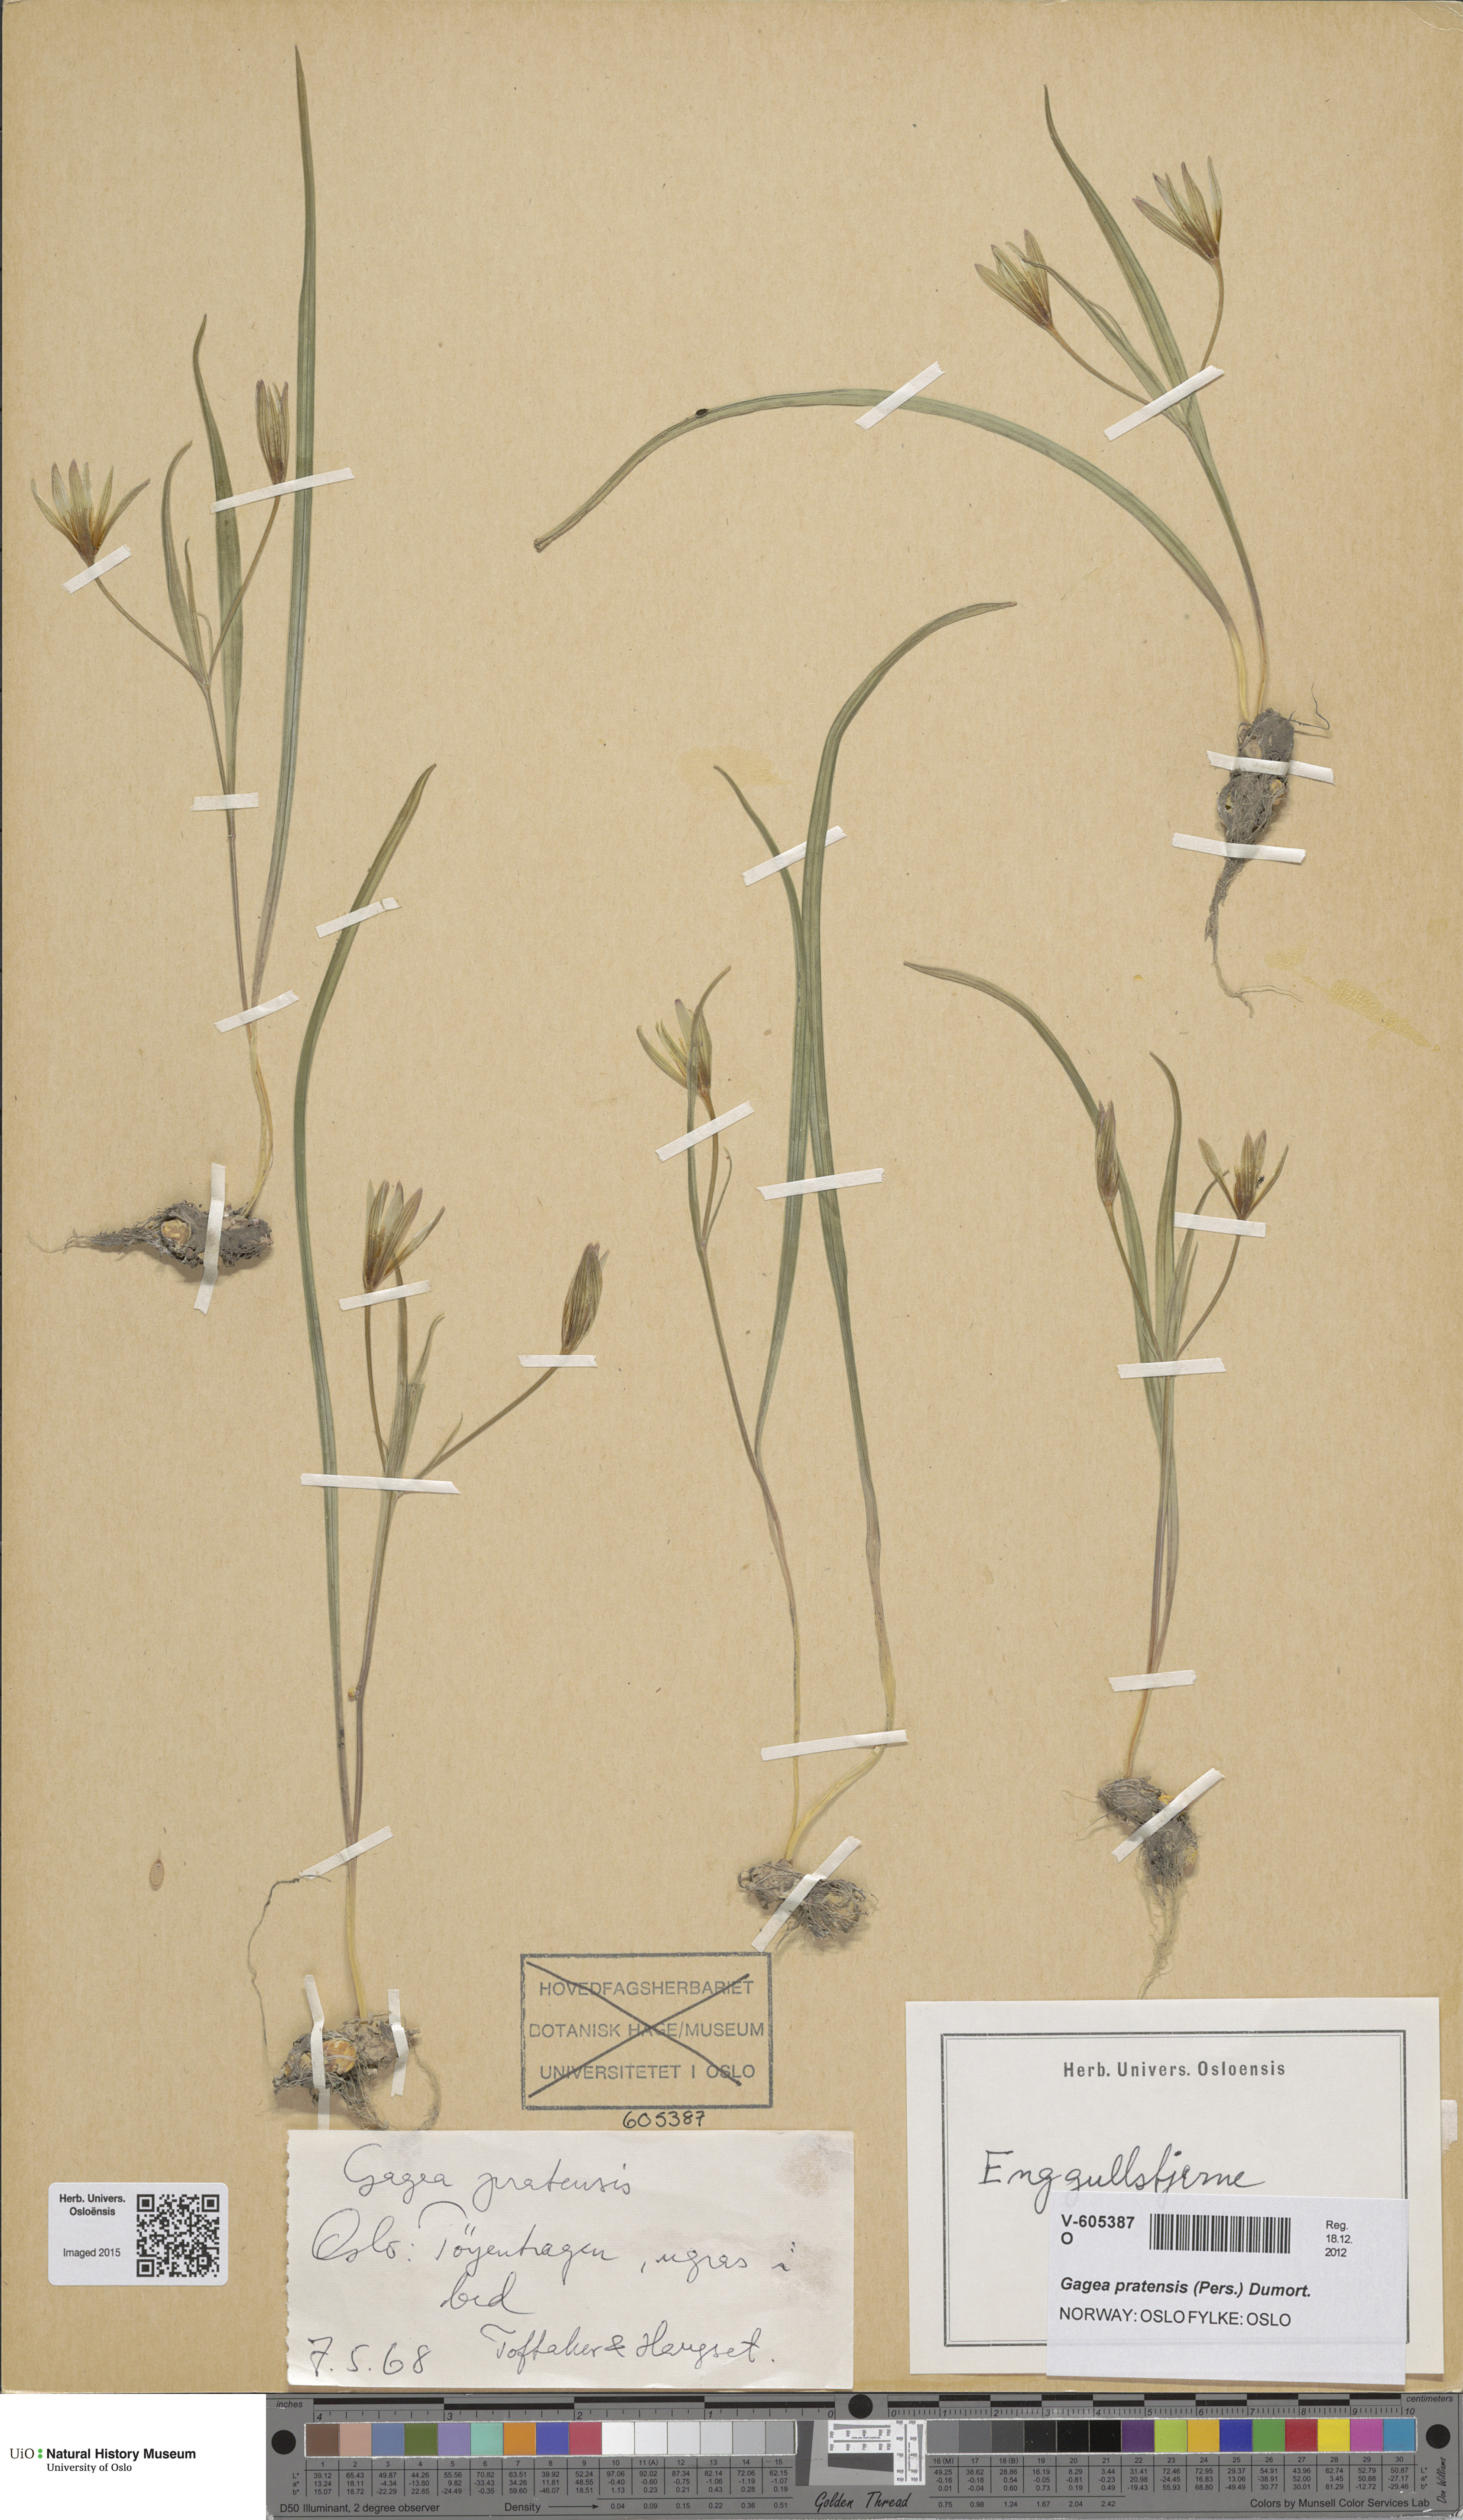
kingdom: Plantae
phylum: Tracheophyta
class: Liliopsida
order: Liliales
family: Liliaceae
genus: Gagea
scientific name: Gagea pratensis
